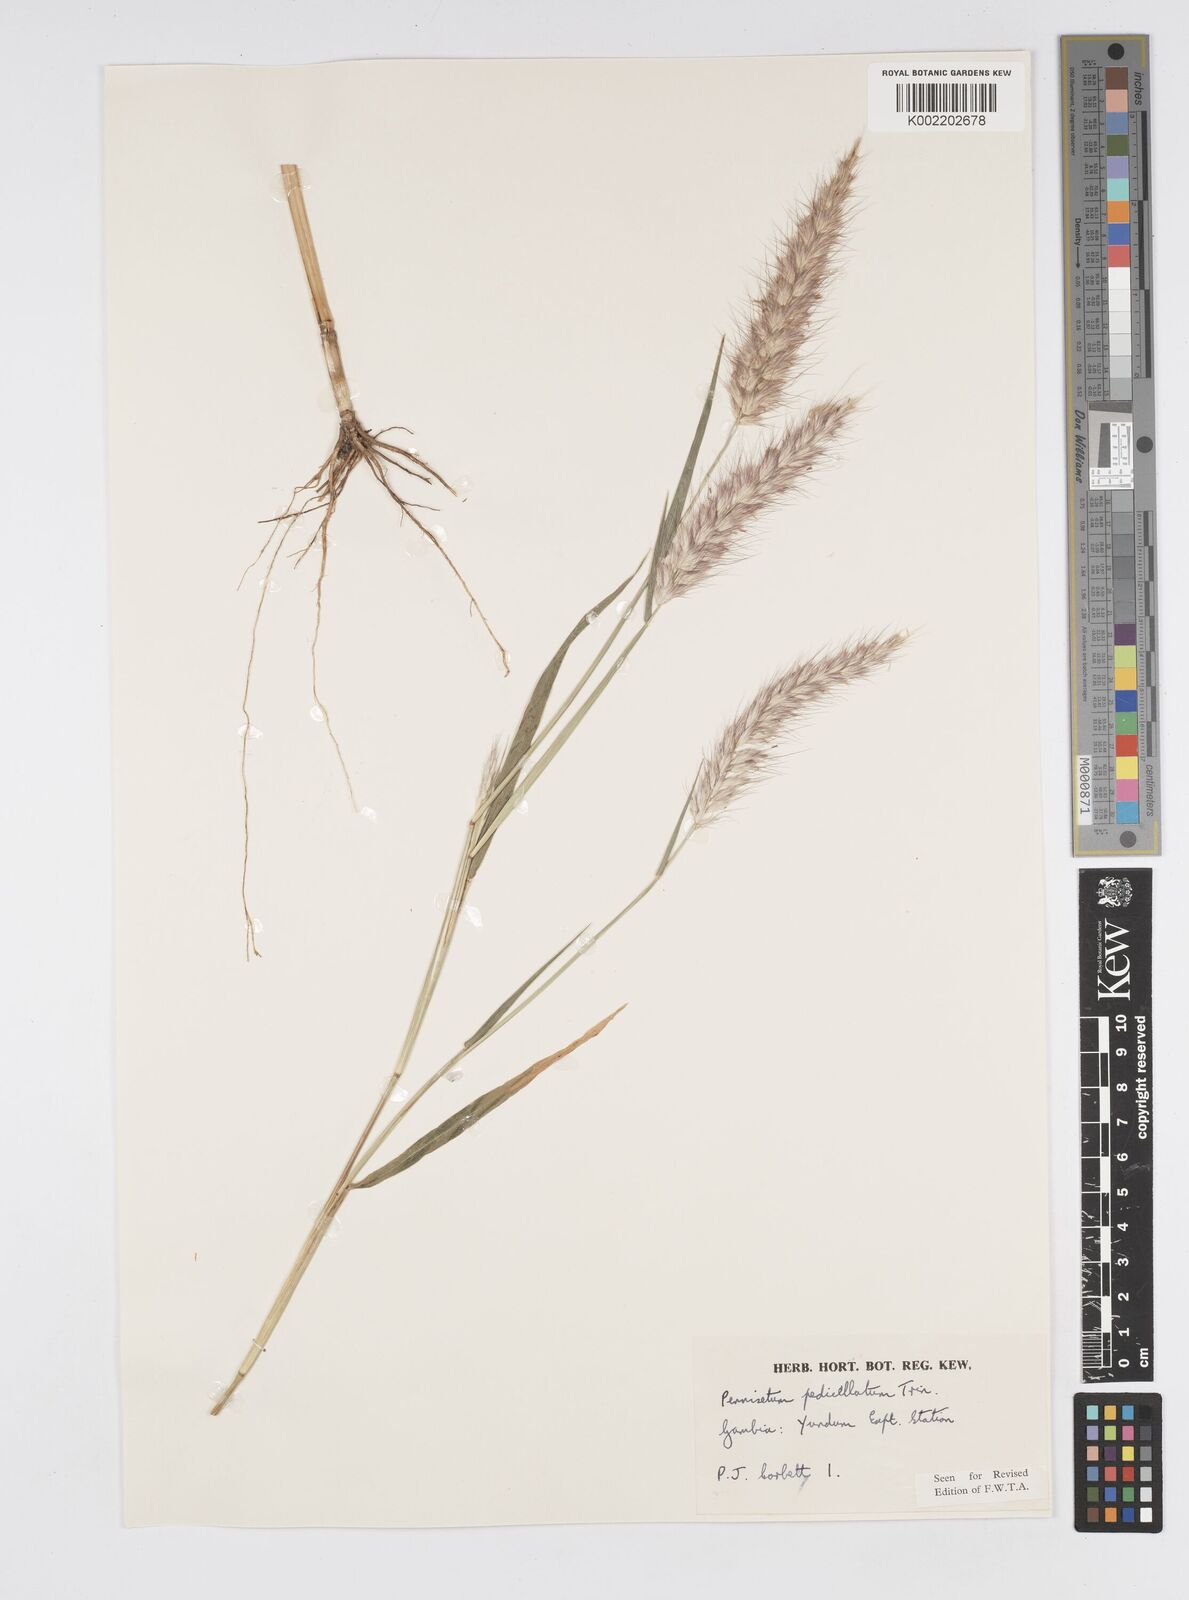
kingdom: Plantae
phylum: Tracheophyta
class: Liliopsida
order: Poales
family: Poaceae
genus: Cenchrus
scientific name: Cenchrus pedicellatus
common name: Hairy fountain grass
